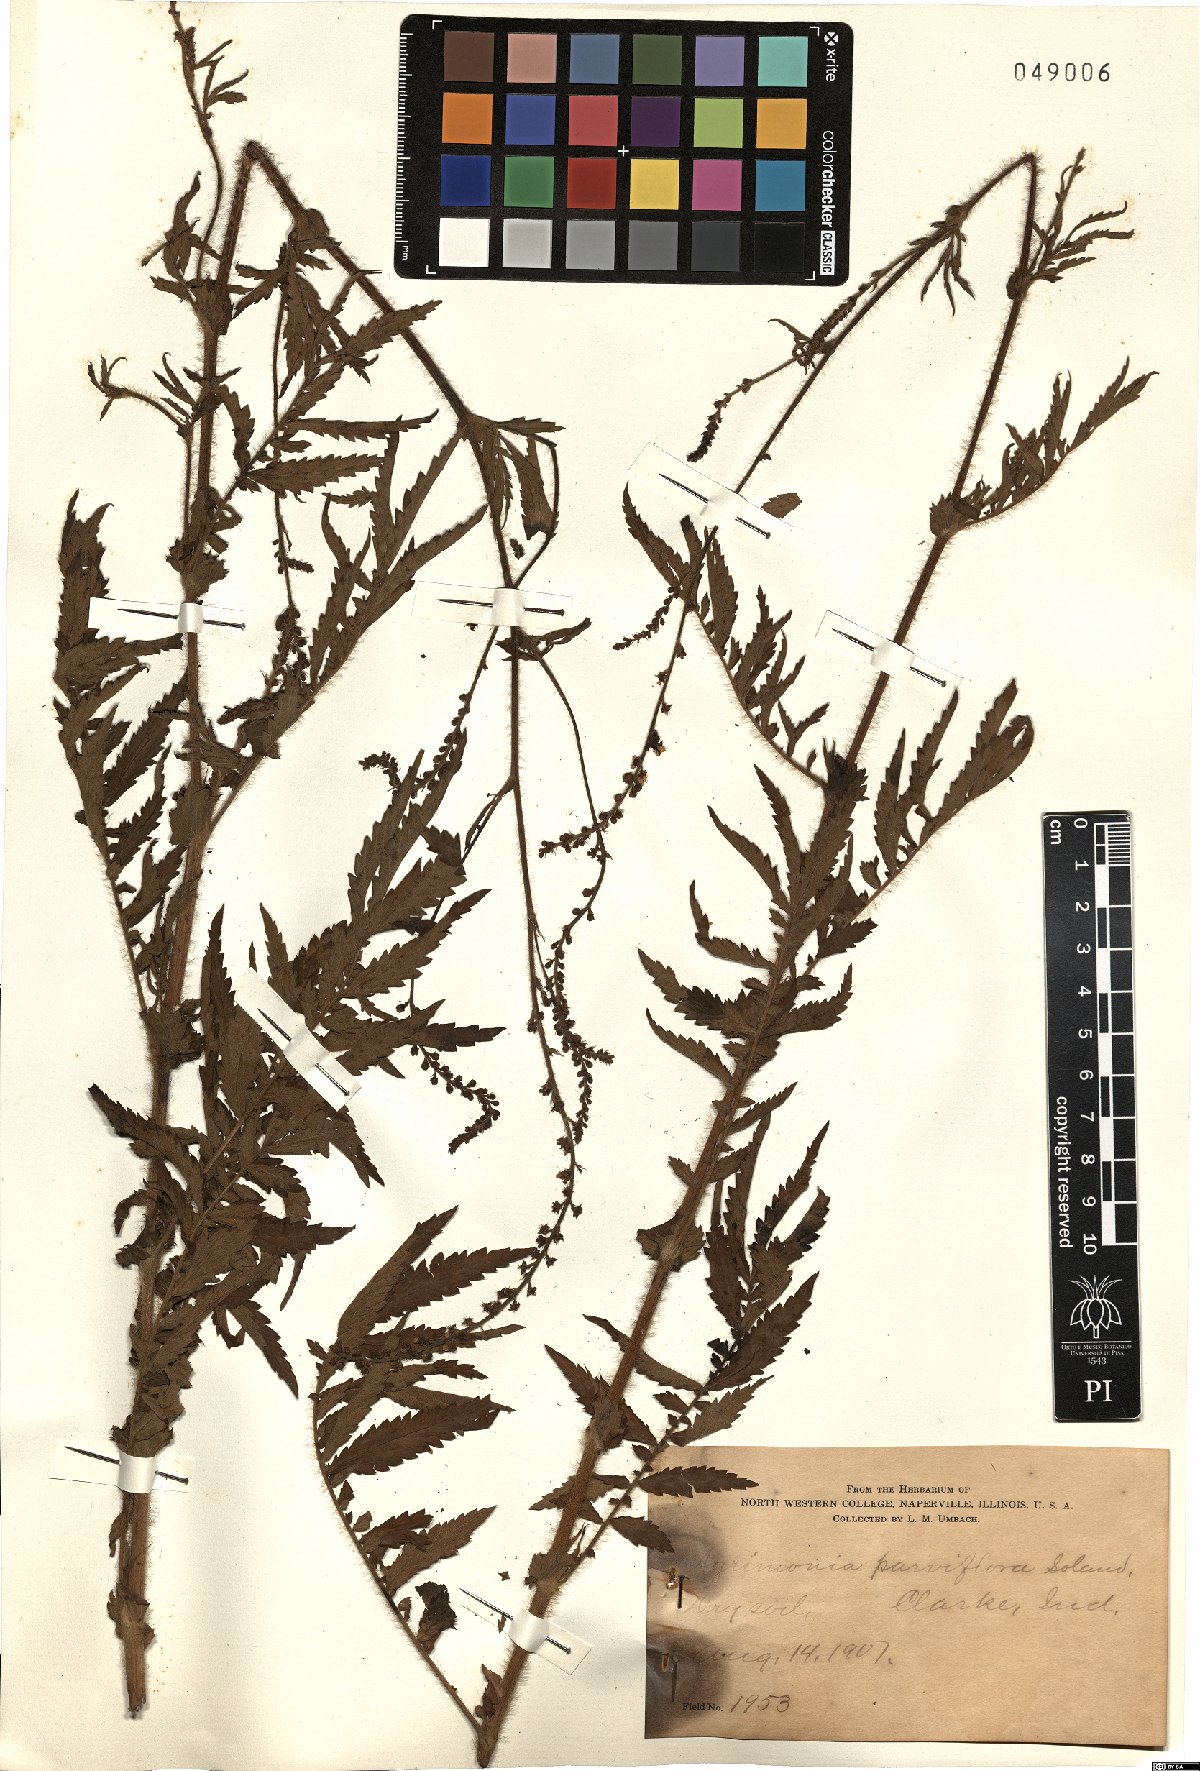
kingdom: Plantae
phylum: Tracheophyta
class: Magnoliopsida
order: Rosales
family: Rosaceae
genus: Agrimonia
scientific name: Agrimonia parviflora
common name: Harvest-lice
